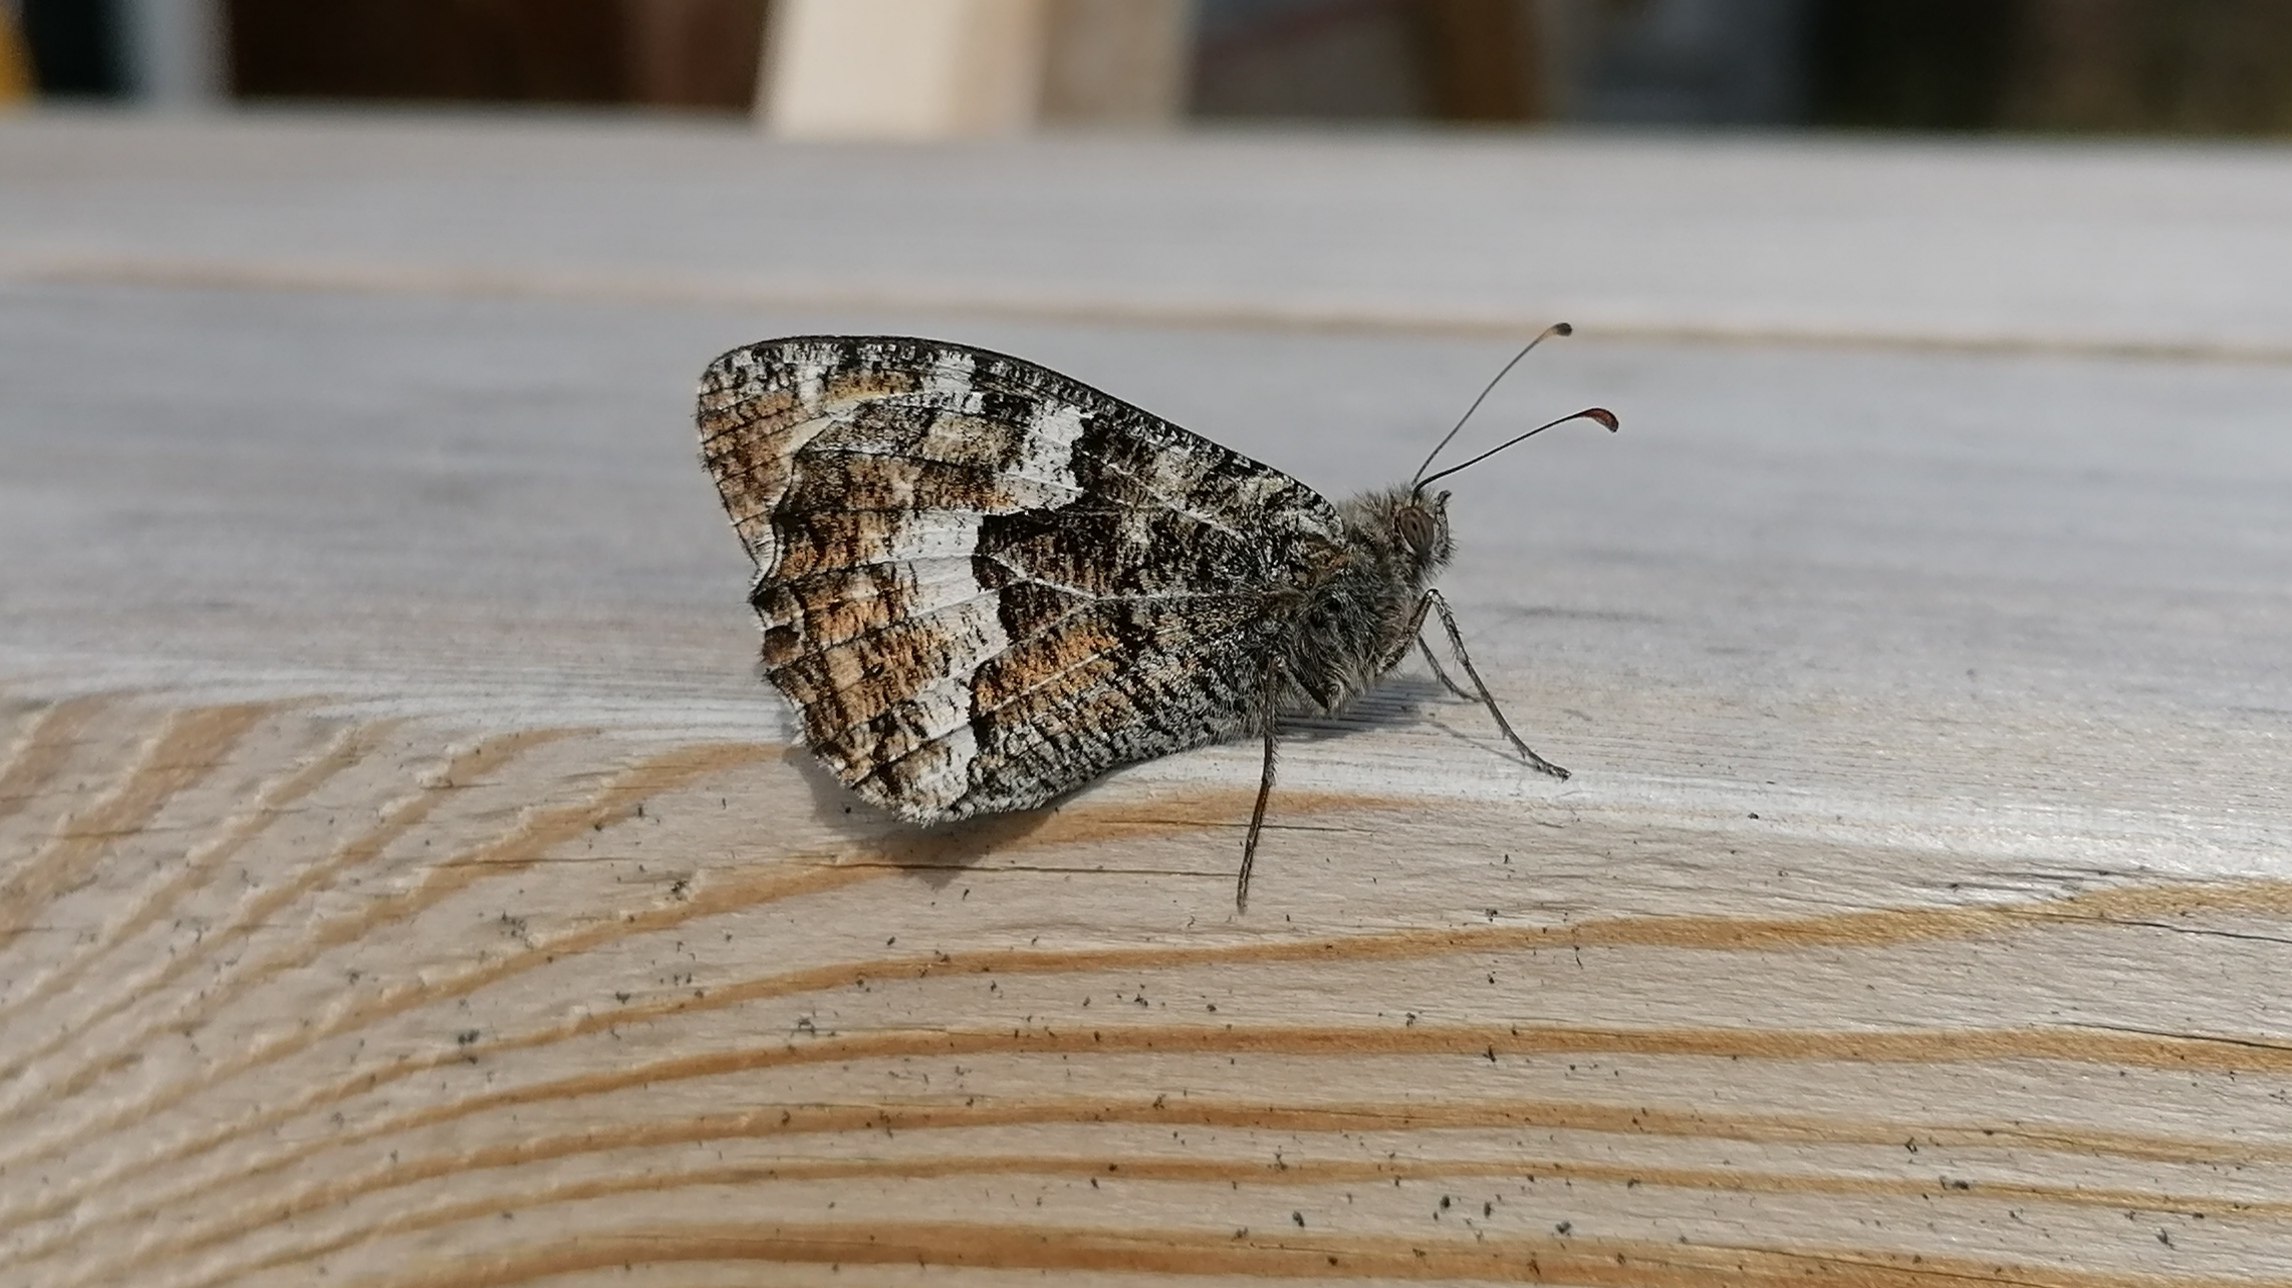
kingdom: Animalia
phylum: Arthropoda
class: Insecta
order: Lepidoptera
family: Nymphalidae
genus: Hipparchia
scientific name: Hipparchia semele
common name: Sandrandøje
